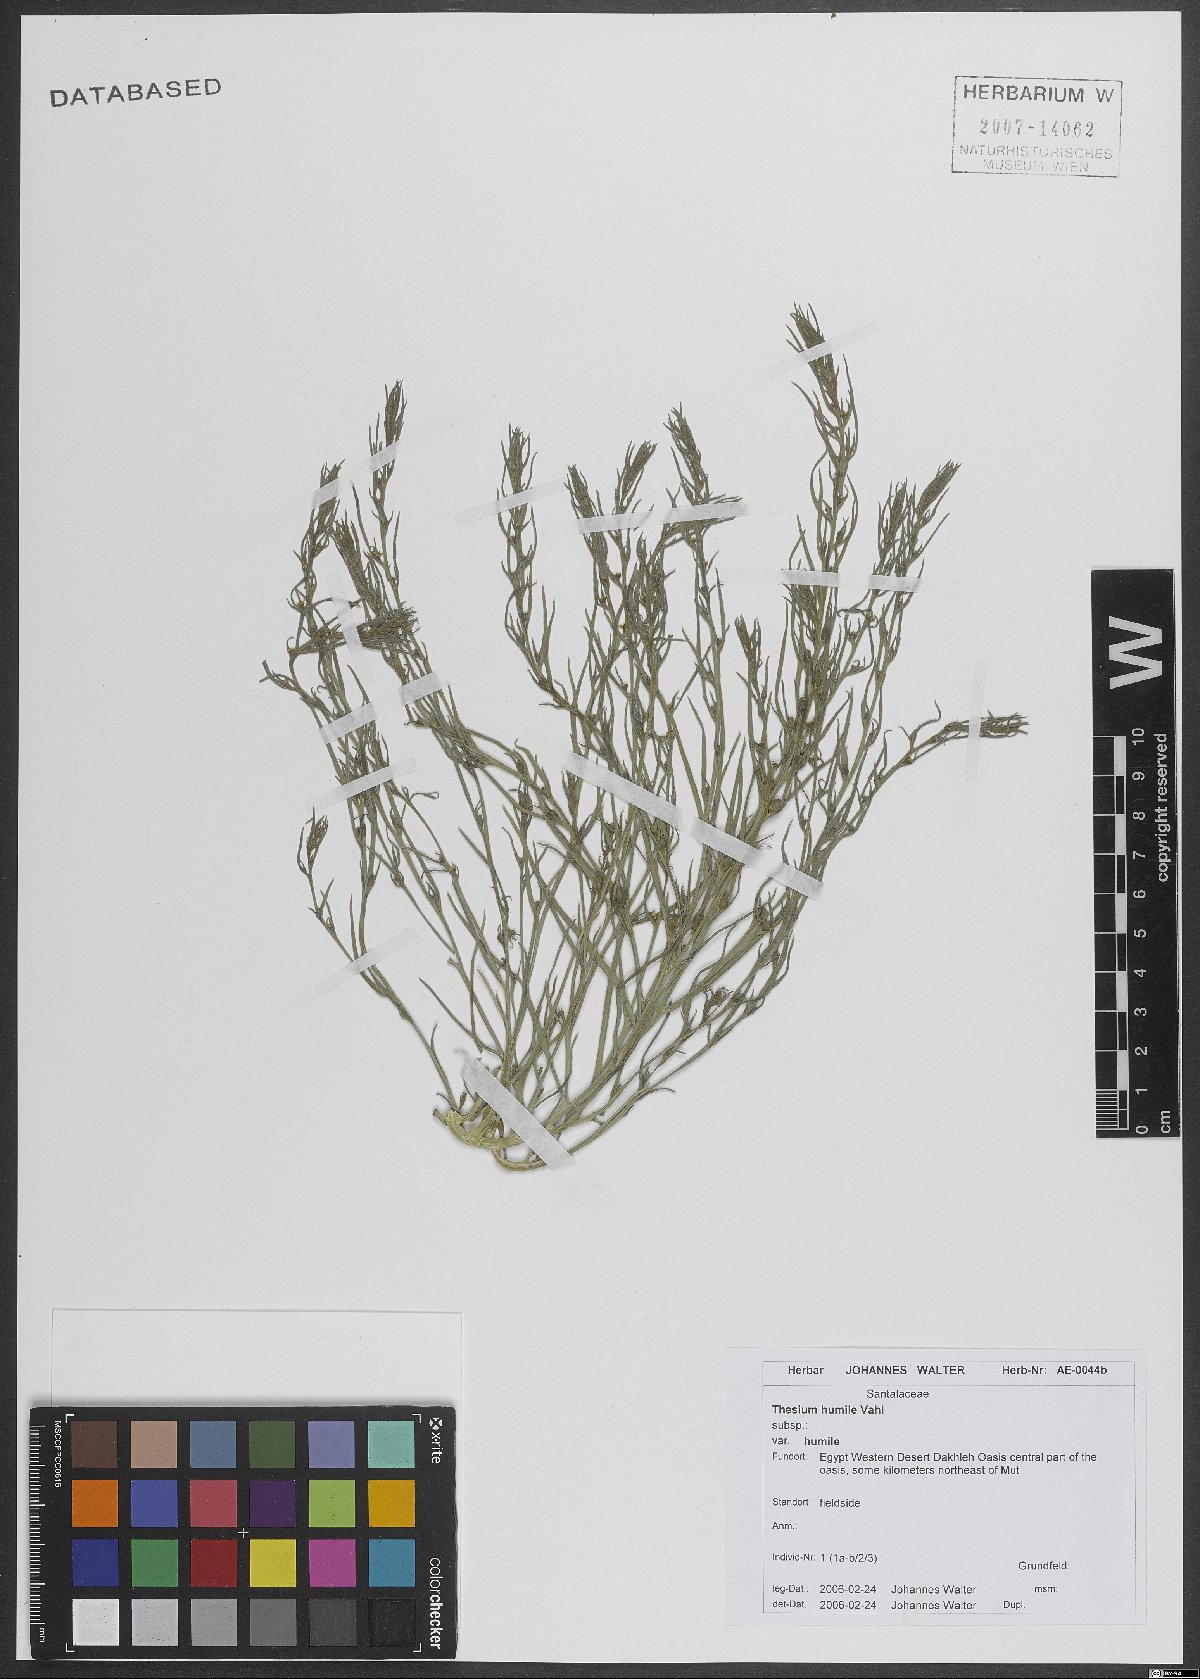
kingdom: Plantae
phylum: Tracheophyta
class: Magnoliopsida
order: Santalales
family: Thesiaceae
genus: Thesium
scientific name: Thesium humile
